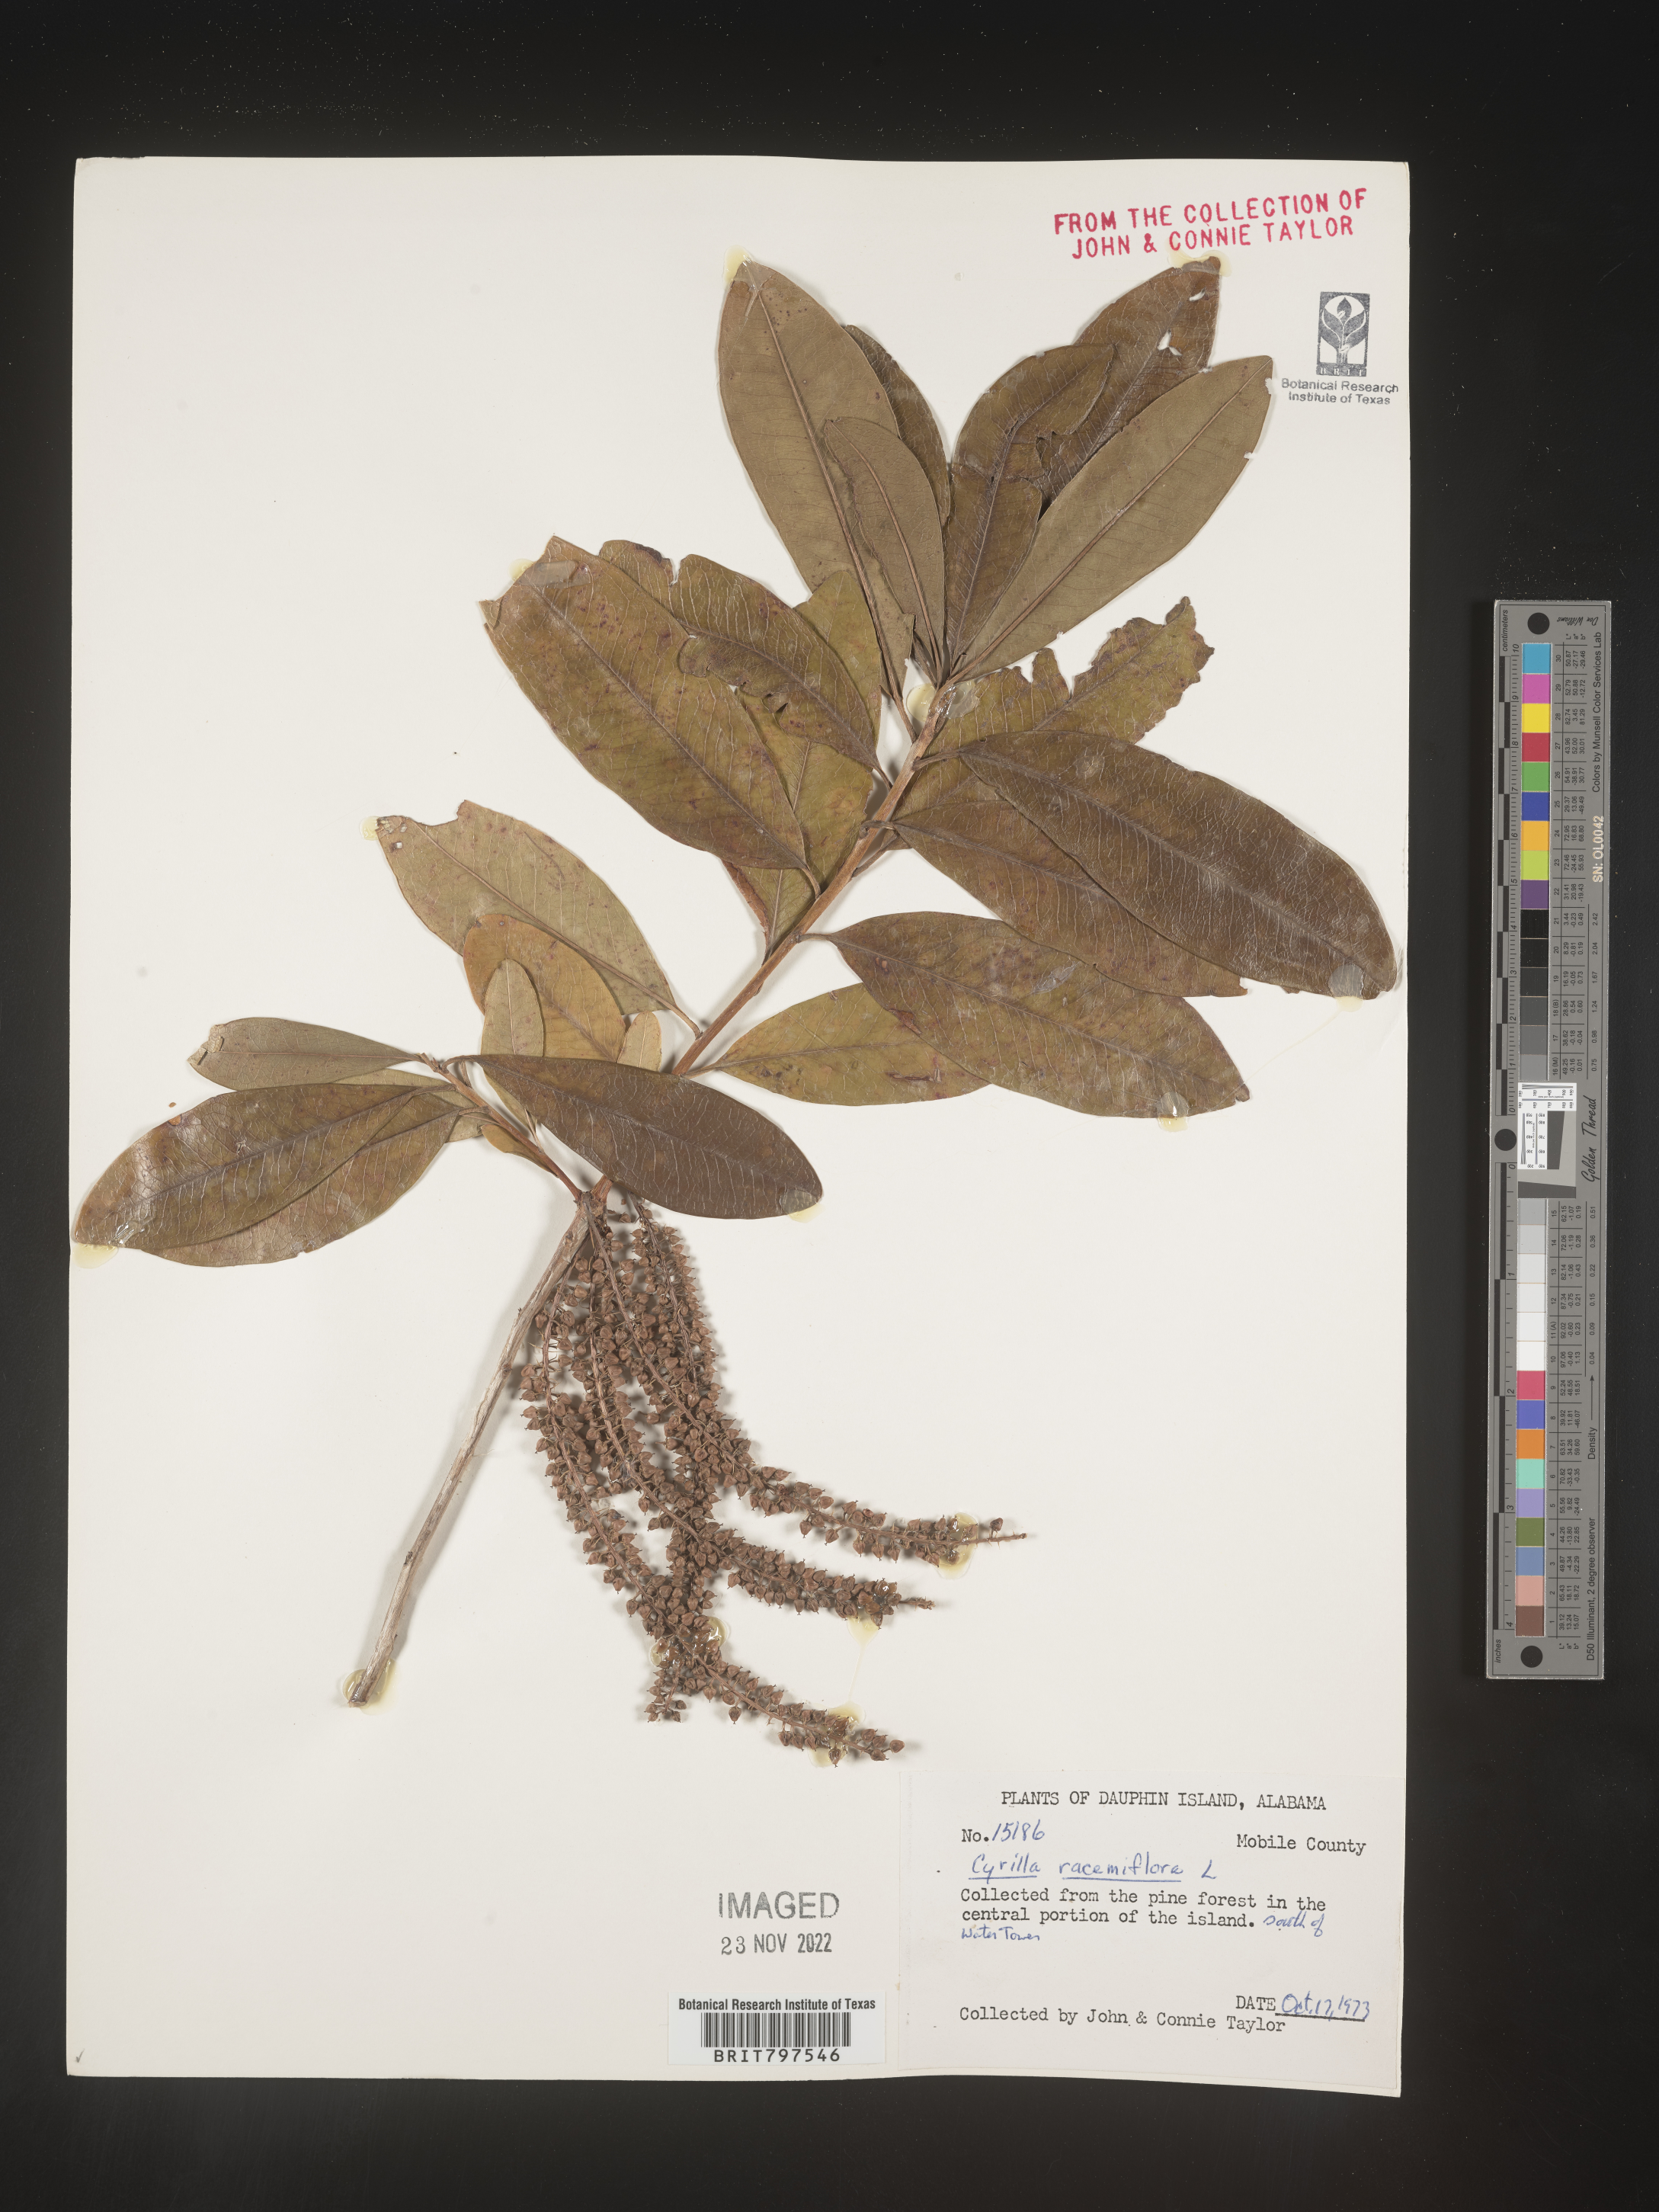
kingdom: Plantae
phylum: Tracheophyta
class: Magnoliopsida
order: Ericales
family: Cyrillaceae
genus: Cyrilla
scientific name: Cyrilla racemiflora
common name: Black titi
